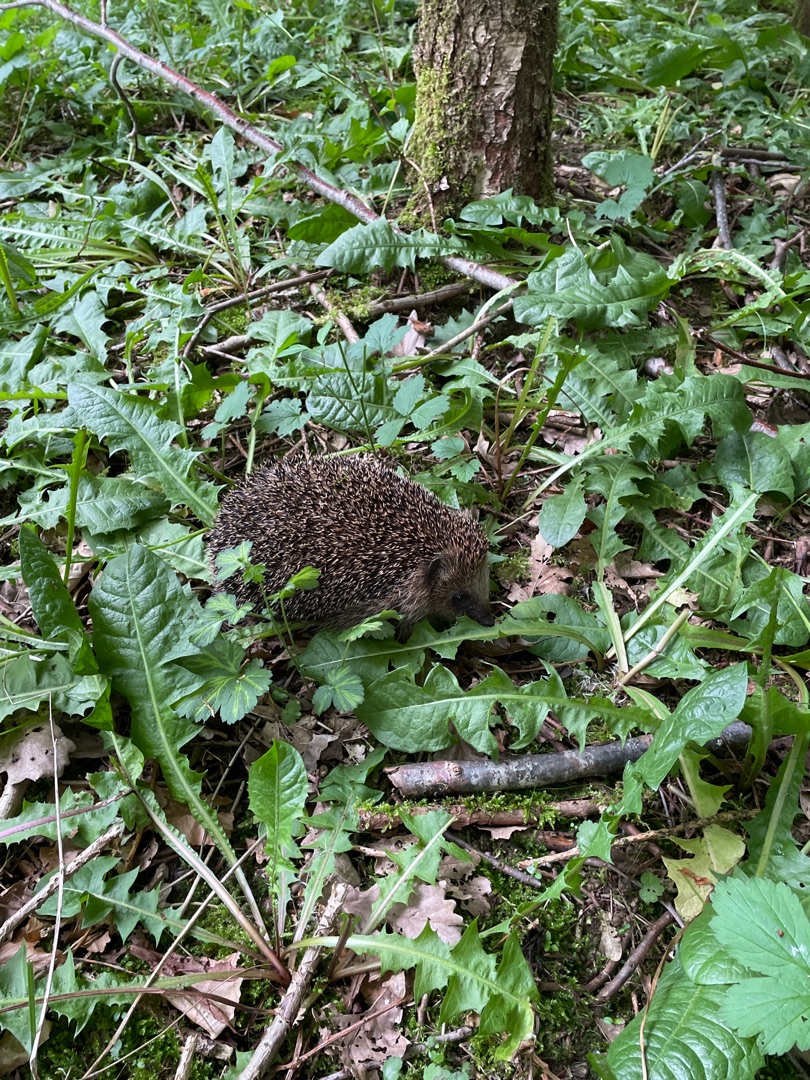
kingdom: Animalia
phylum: Chordata
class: Mammalia
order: Erinaceomorpha
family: Erinaceidae
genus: Erinaceus
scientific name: Erinaceus europaeus
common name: Pindsvin
